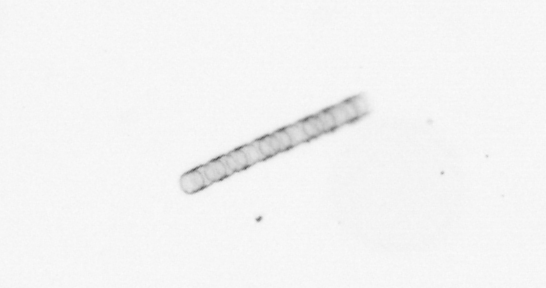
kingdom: Chromista
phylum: Ochrophyta
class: Bacillariophyceae
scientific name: Bacillariophyceae
